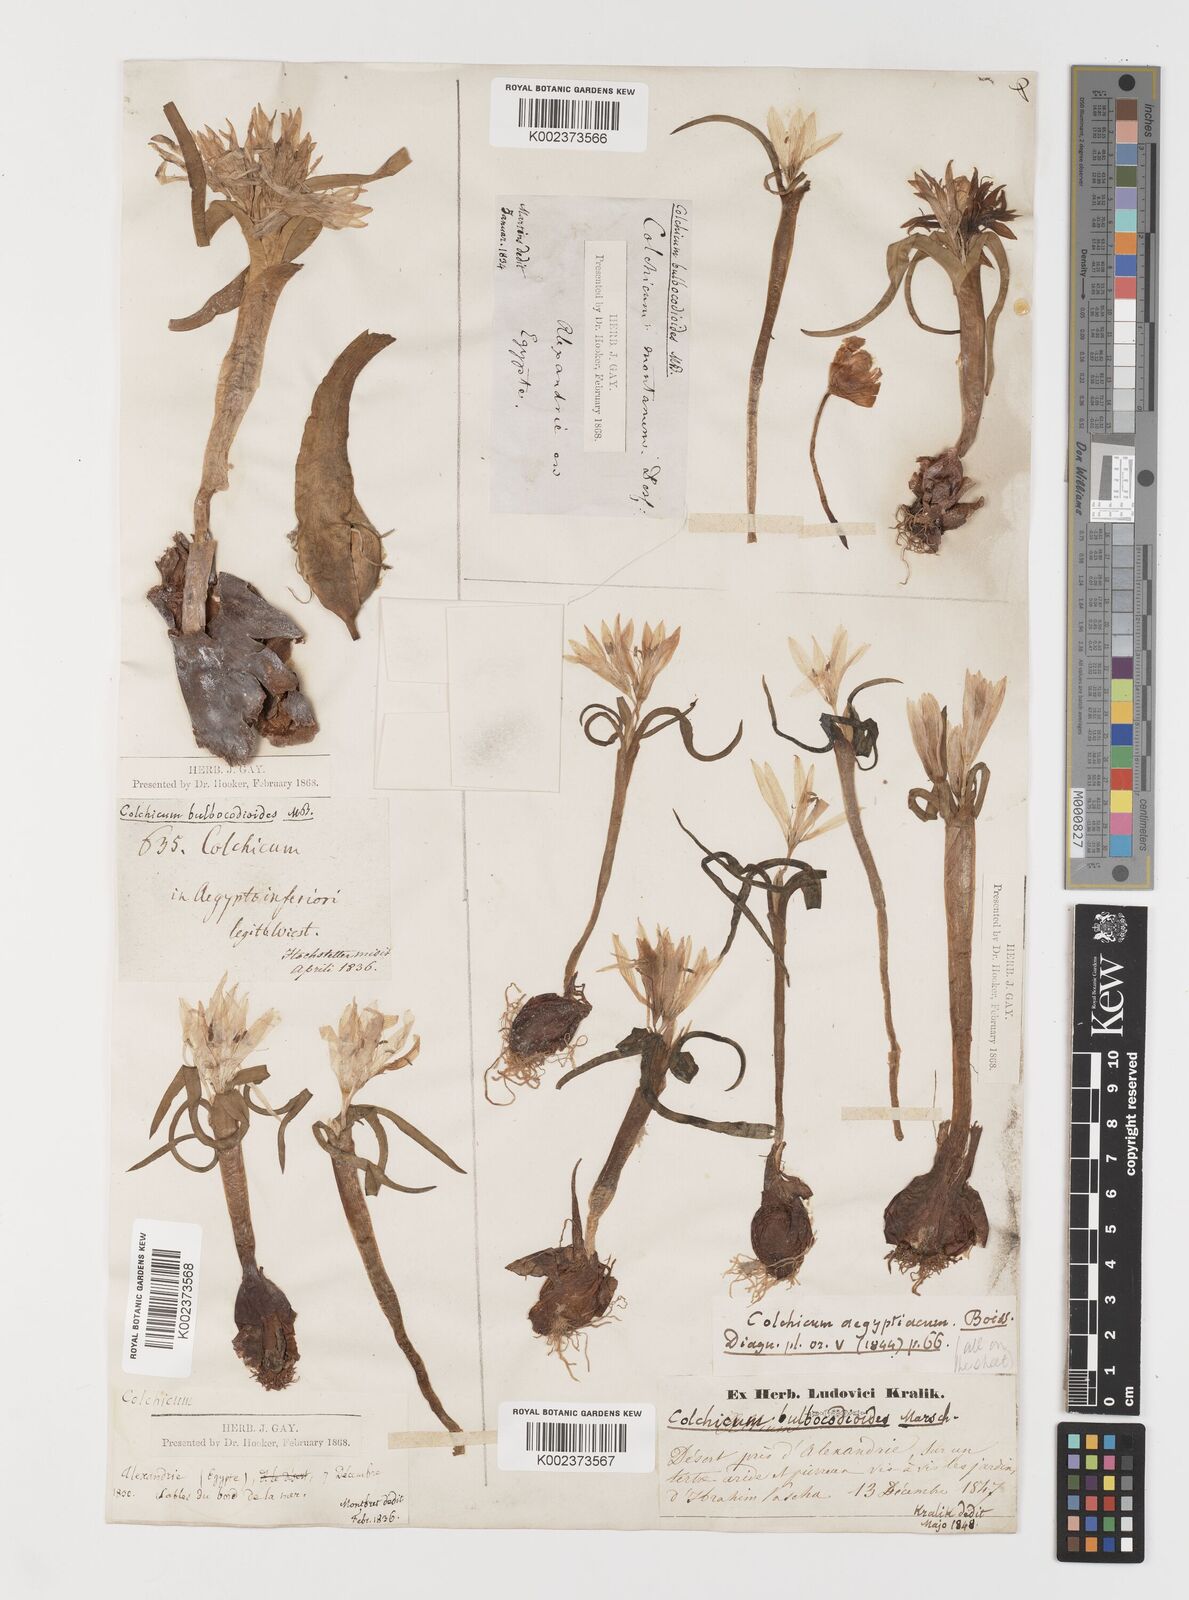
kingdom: Plantae
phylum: Tracheophyta
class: Liliopsida
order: Liliales
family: Colchicaceae
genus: Colchicum
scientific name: Colchicum ritchii
